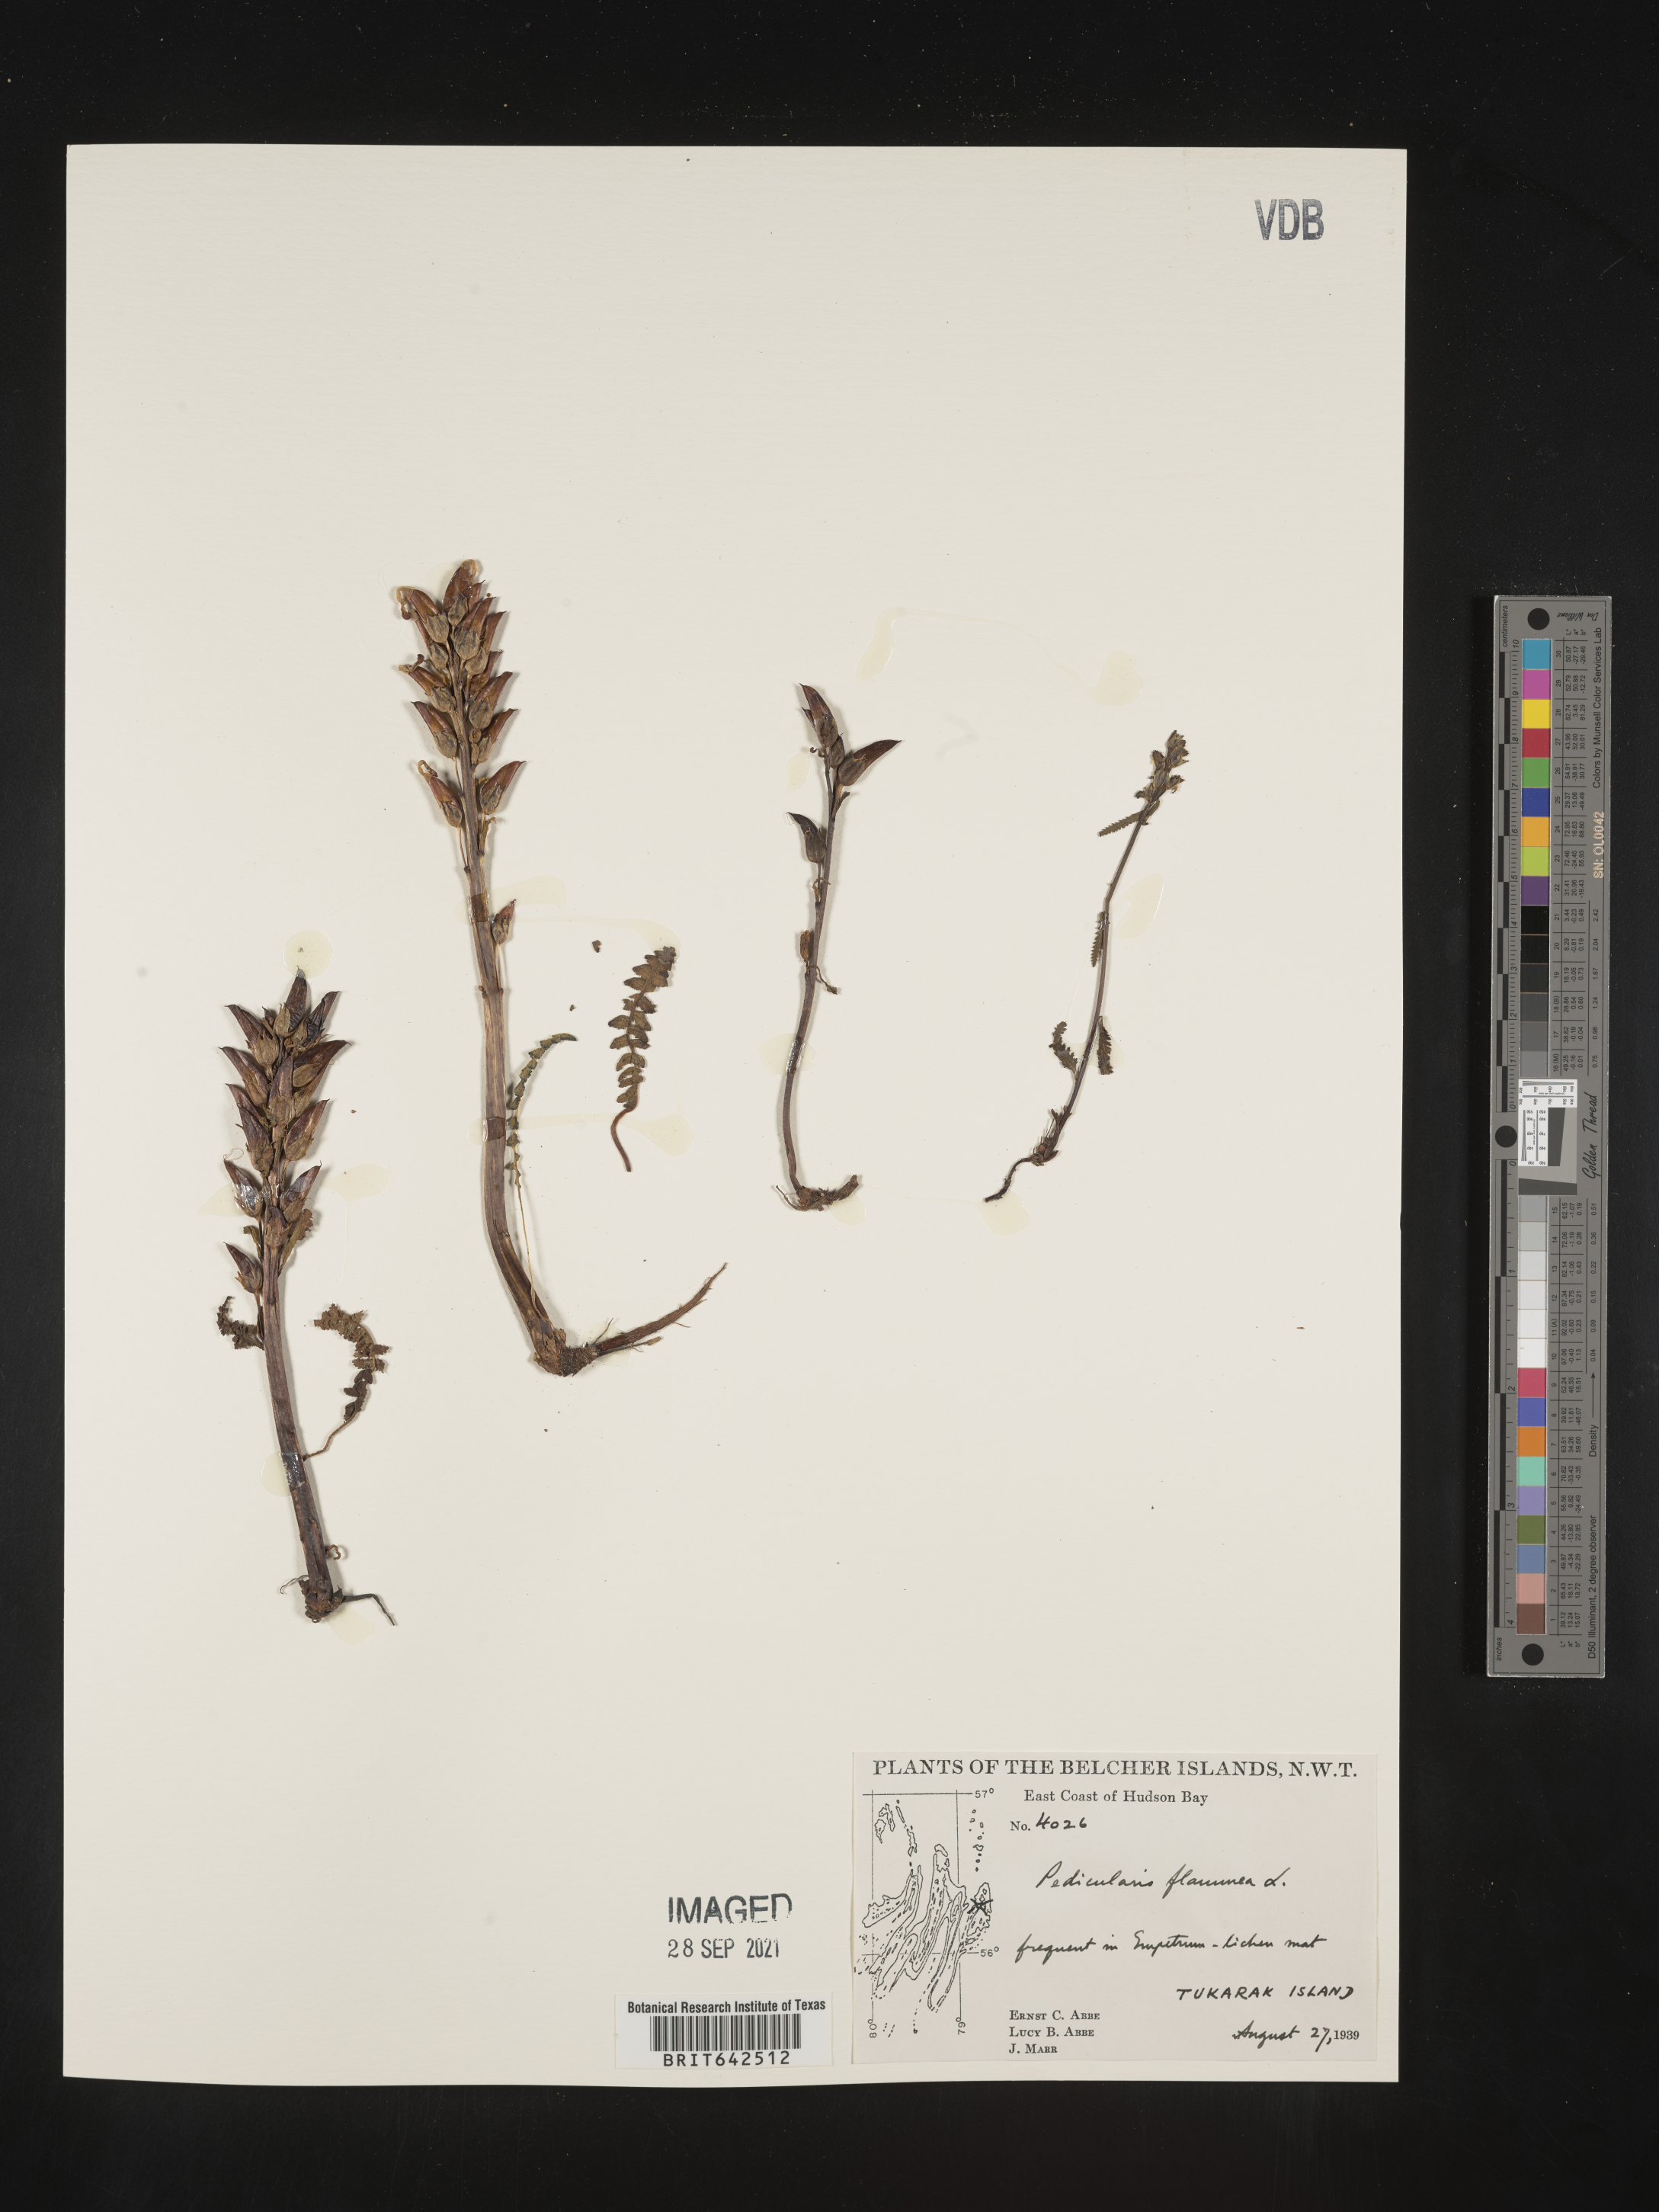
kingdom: Plantae
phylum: Tracheophyta
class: Magnoliopsida
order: Lamiales
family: Orobanchaceae
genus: Pedicularis
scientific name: Pedicularis
